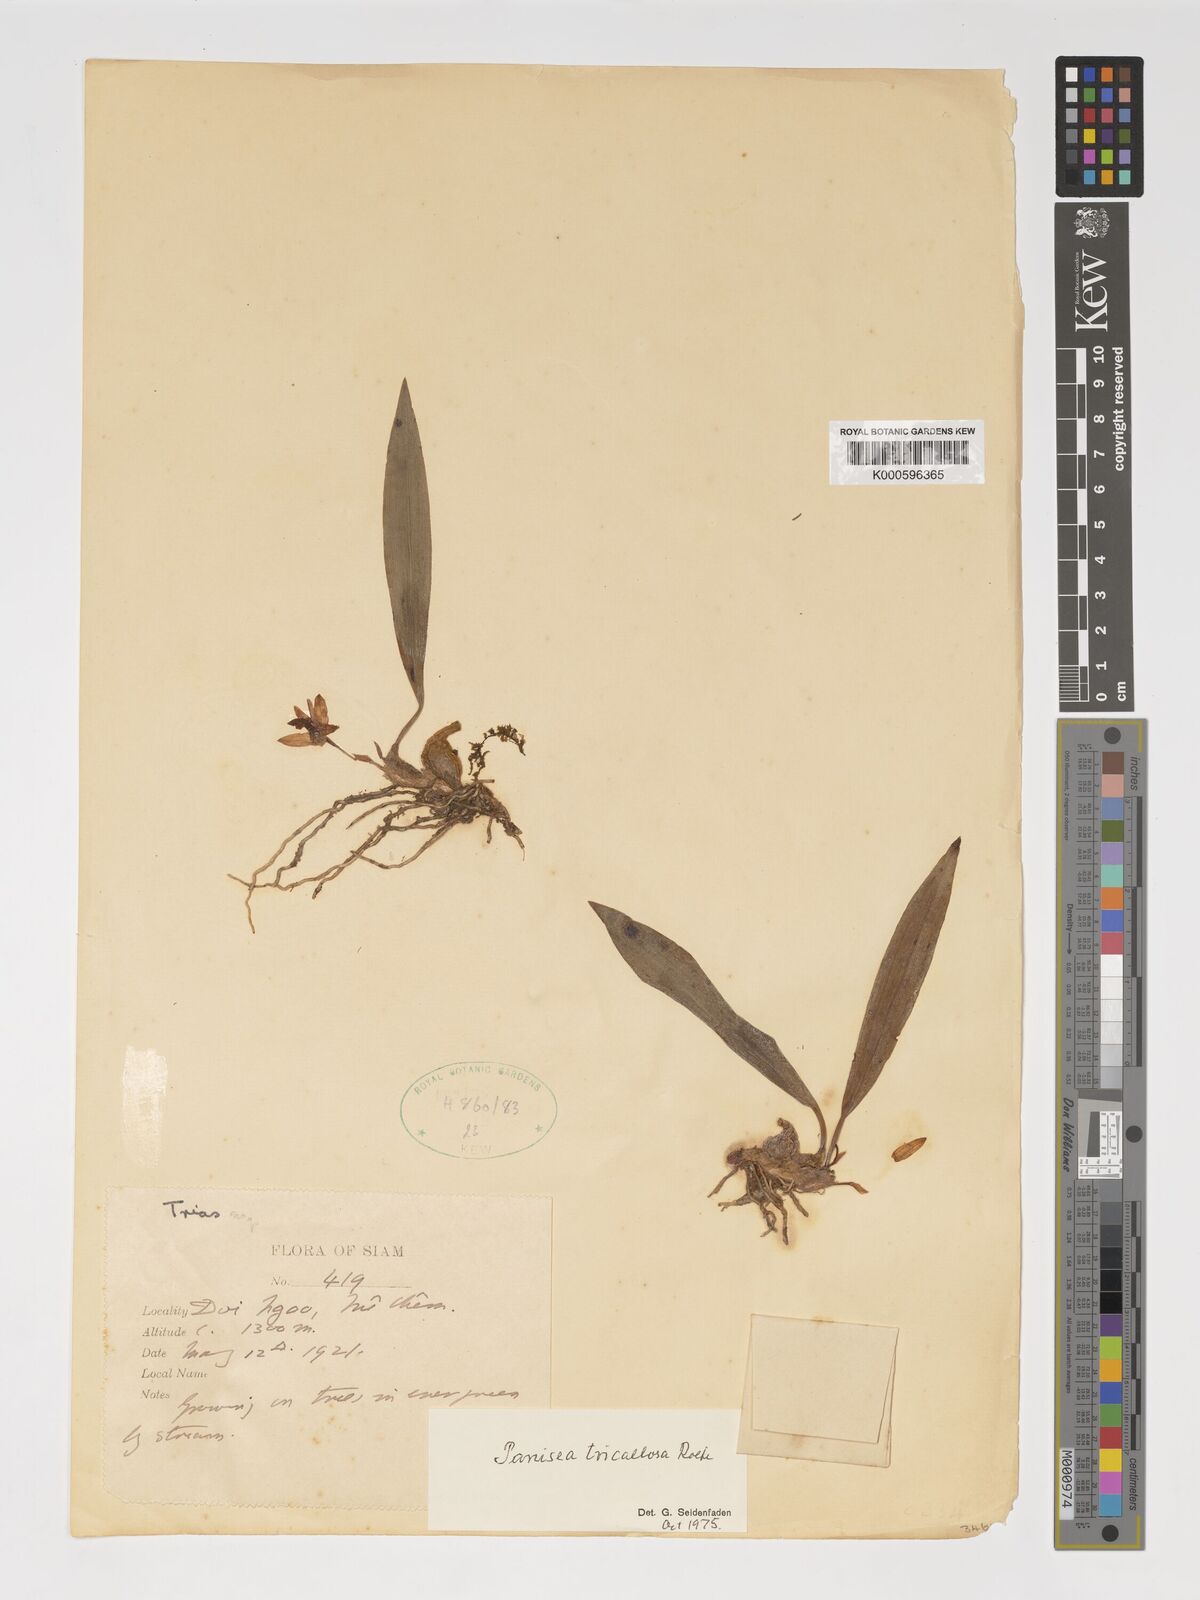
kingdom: Plantae
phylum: Tracheophyta
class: Liliopsida
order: Asparagales
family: Orchidaceae
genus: Coelogyne
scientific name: Coelogyne tricallosa
